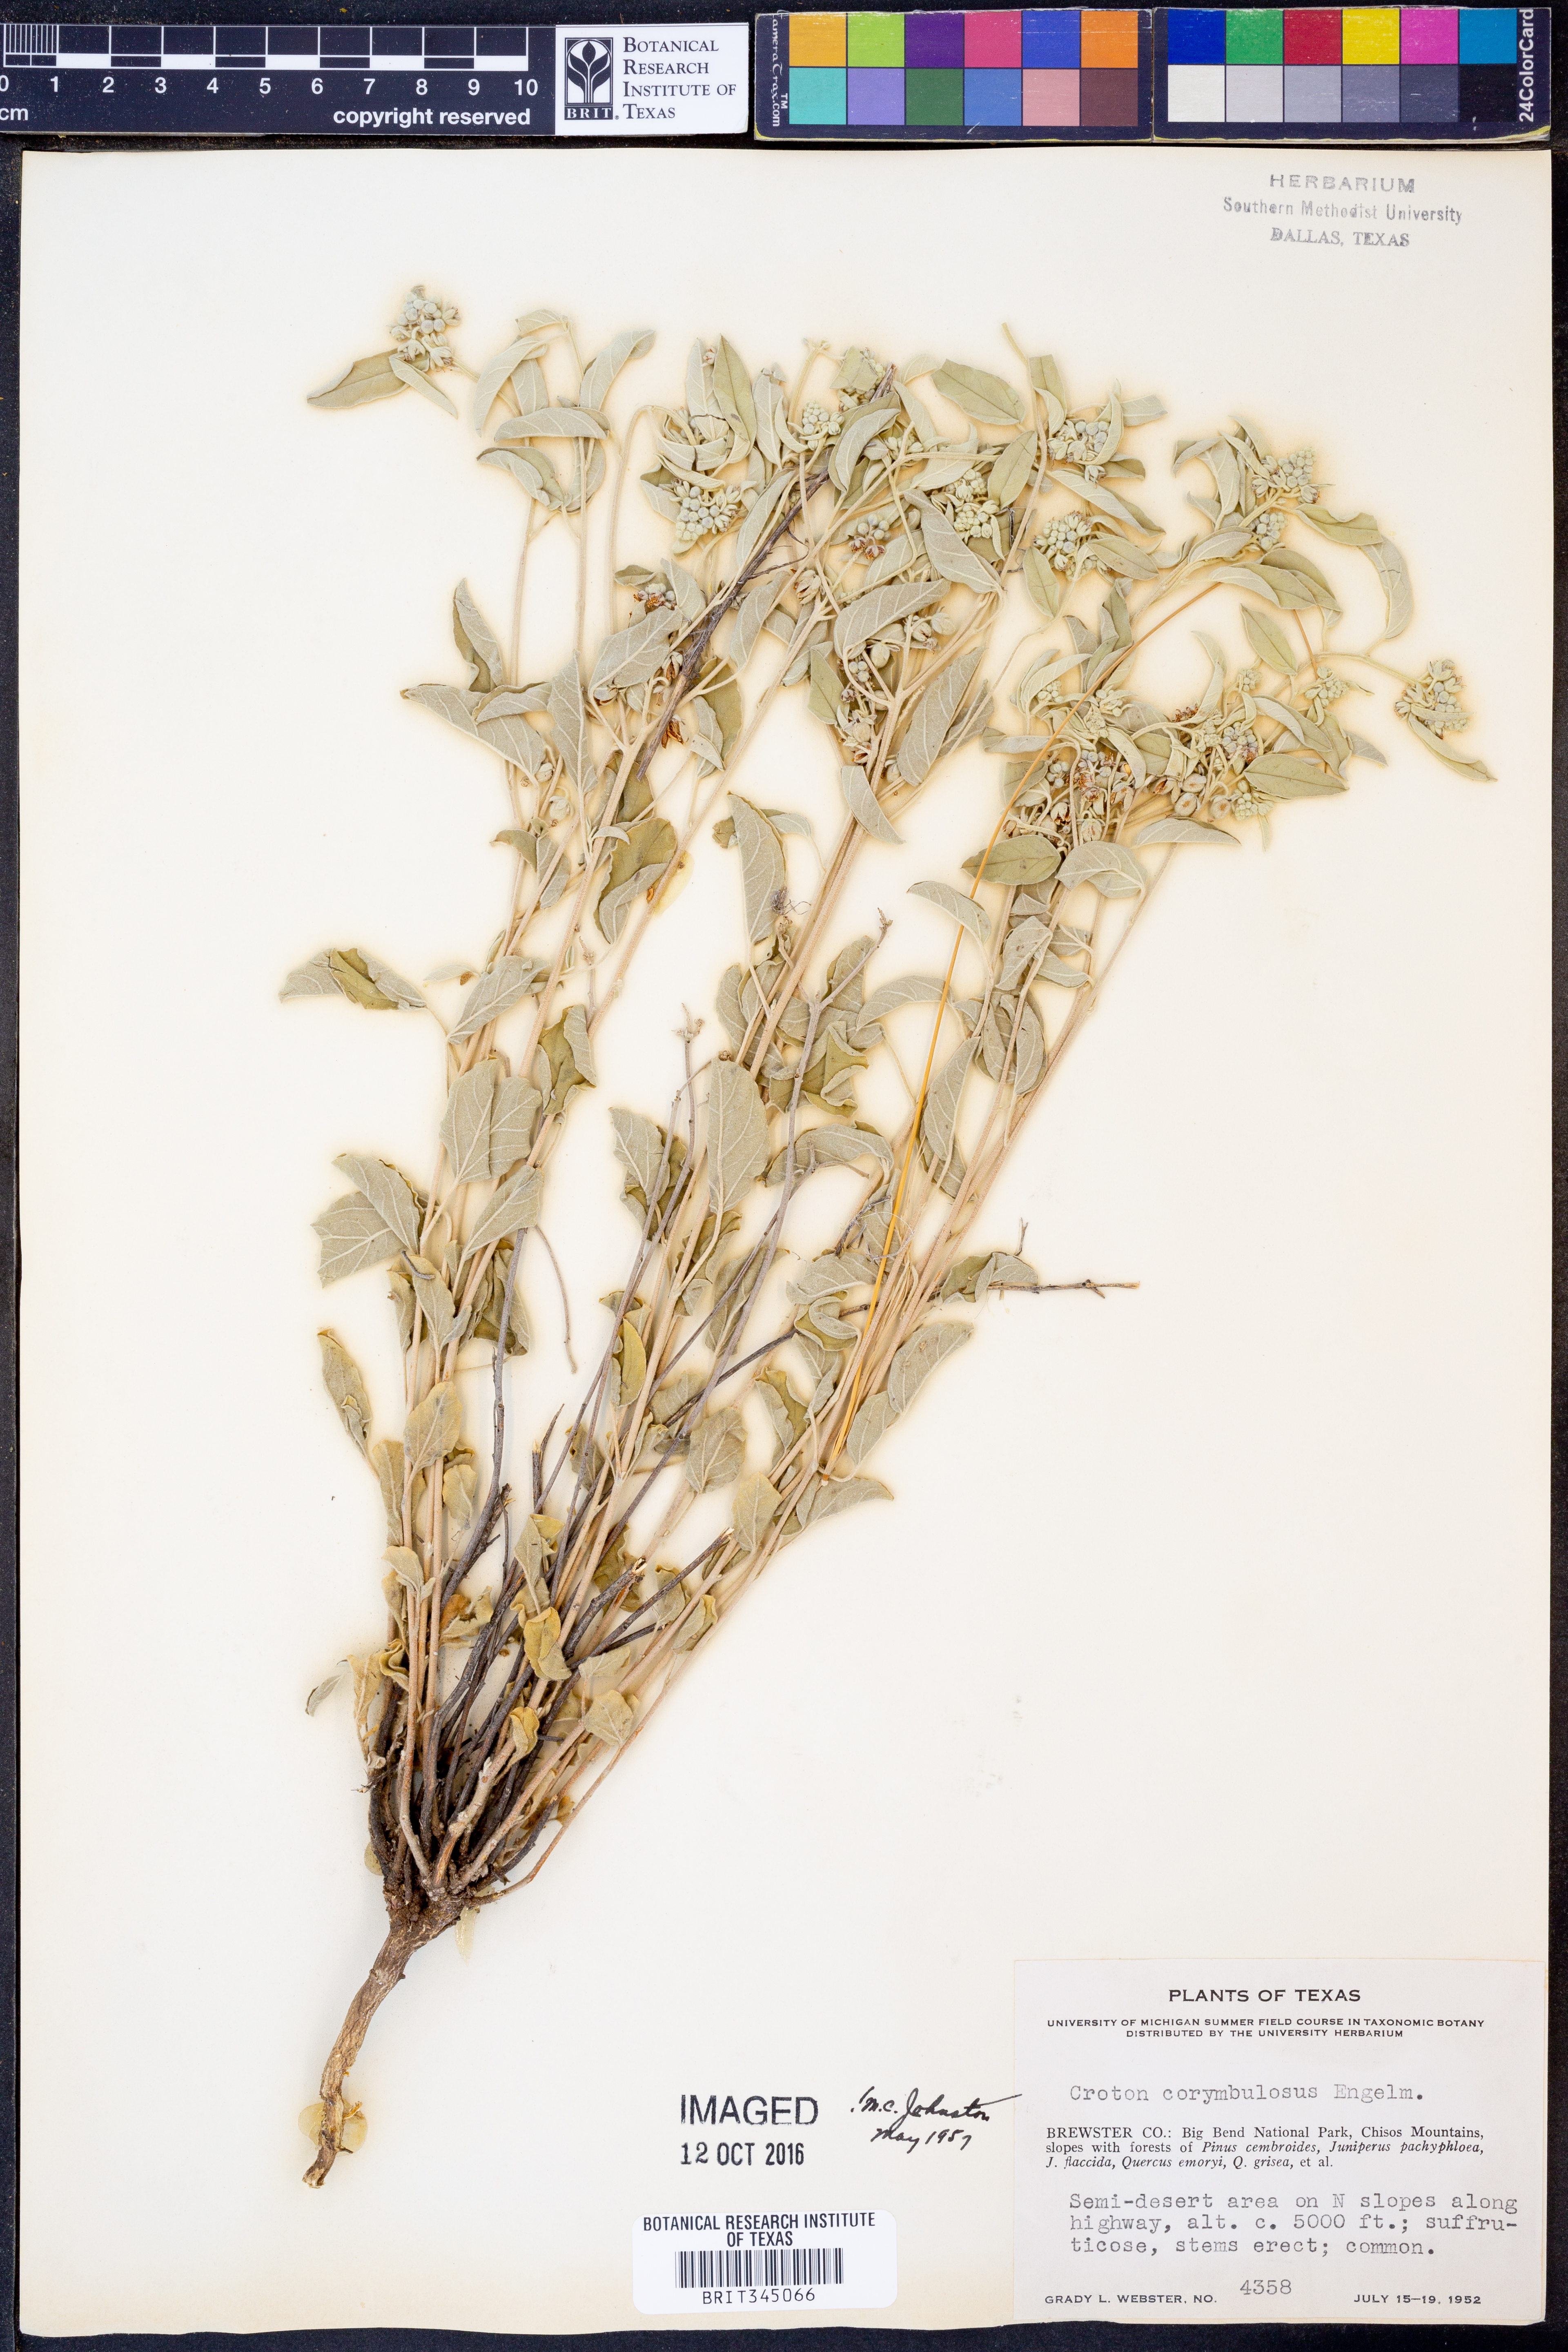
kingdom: Plantae
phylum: Tracheophyta
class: Magnoliopsida
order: Malpighiales
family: Euphorbiaceae
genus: Croton
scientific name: Croton pottsii
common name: Leatherweed
